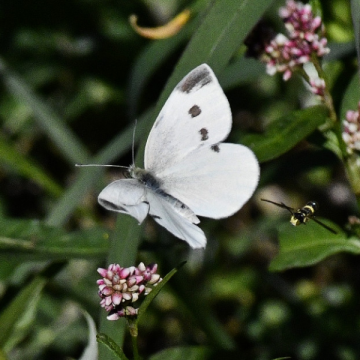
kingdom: Animalia
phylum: Arthropoda
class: Insecta
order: Lepidoptera
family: Pieridae
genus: Pieris
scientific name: Pieris rapae
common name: Cabbage White
